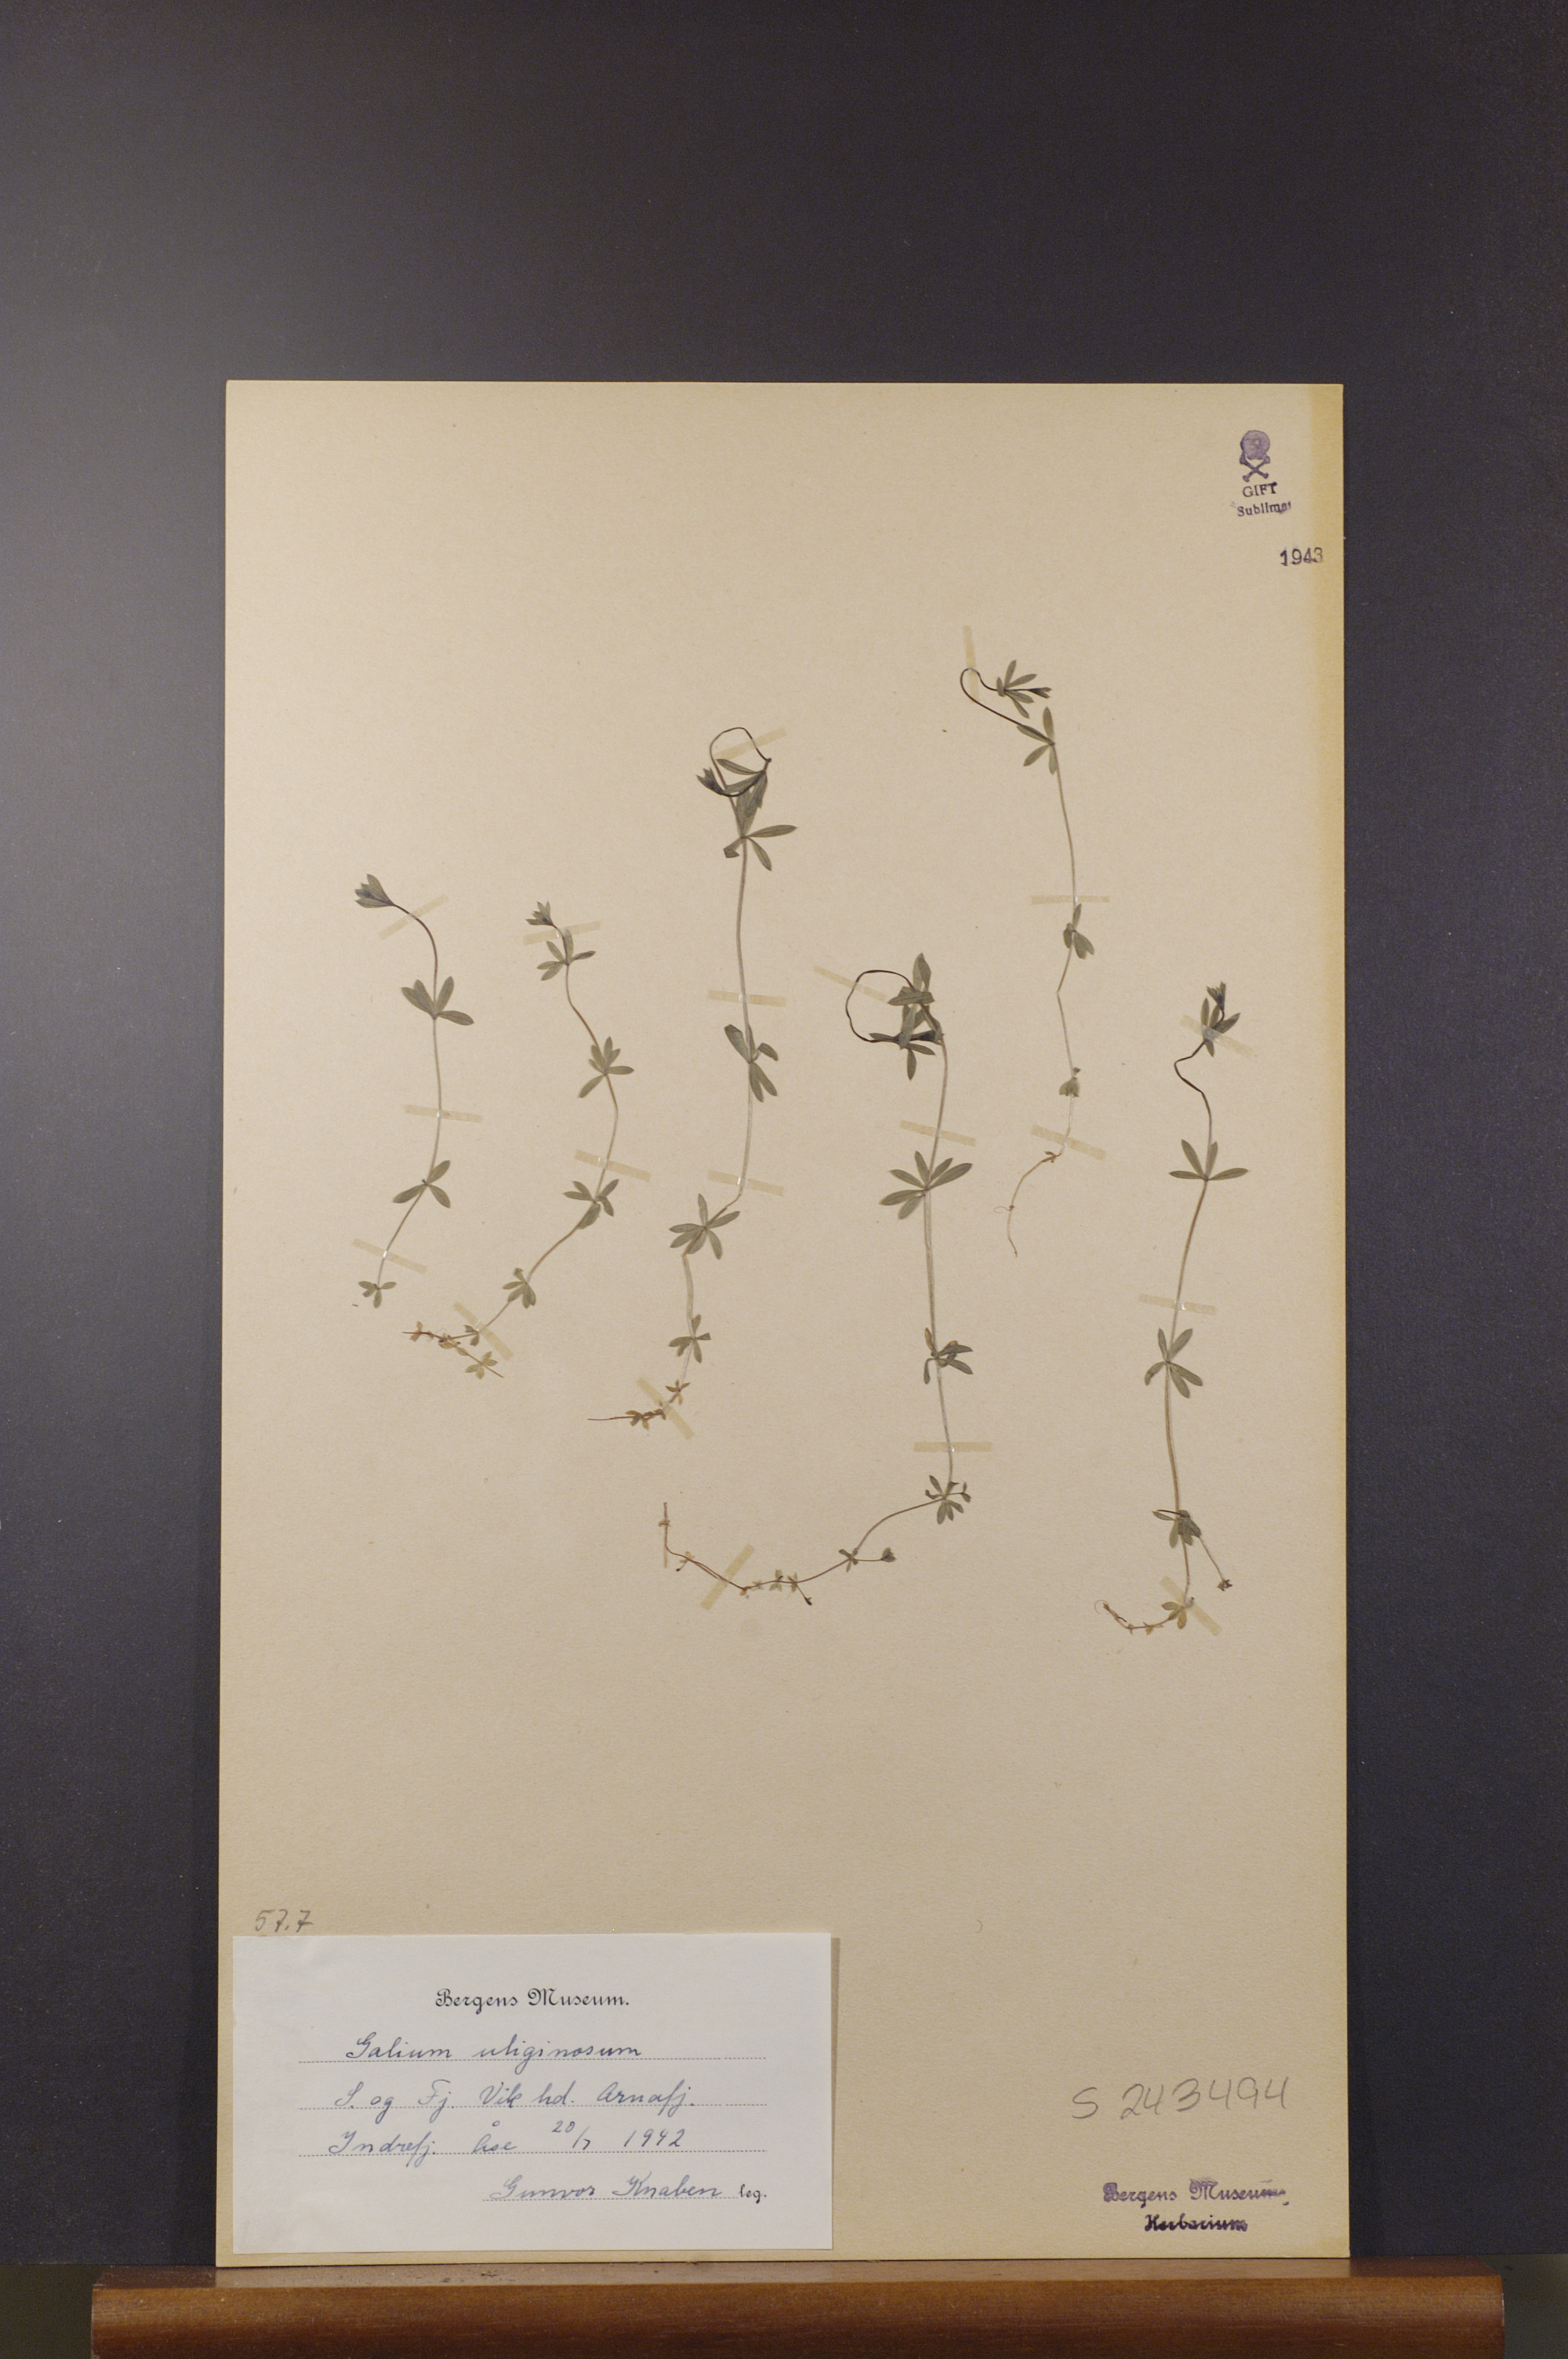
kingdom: Plantae
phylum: Tracheophyta
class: Magnoliopsida
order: Gentianales
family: Rubiaceae
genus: Galium
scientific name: Galium uliginosum
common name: Fen bedstraw
